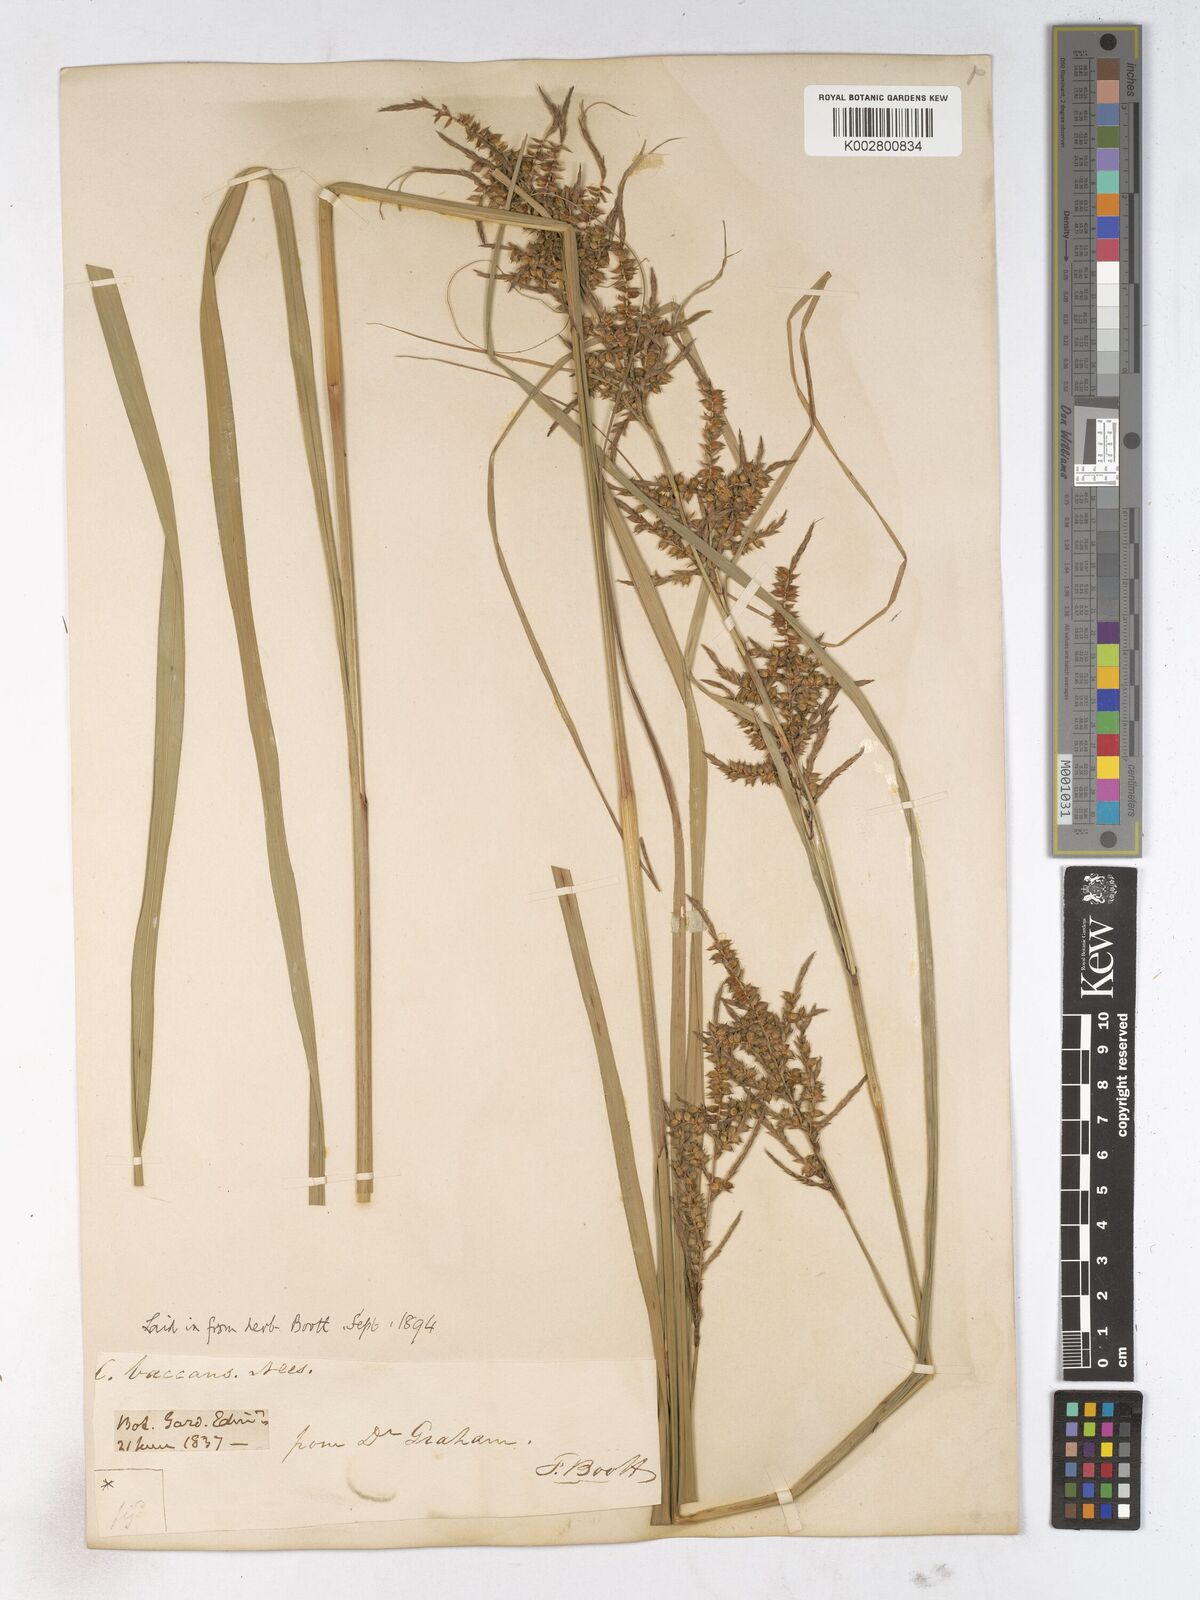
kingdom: Plantae
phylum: Tracheophyta
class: Liliopsida
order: Poales
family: Cyperaceae
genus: Carex
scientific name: Carex baccans
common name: Crimson seeded sedge
